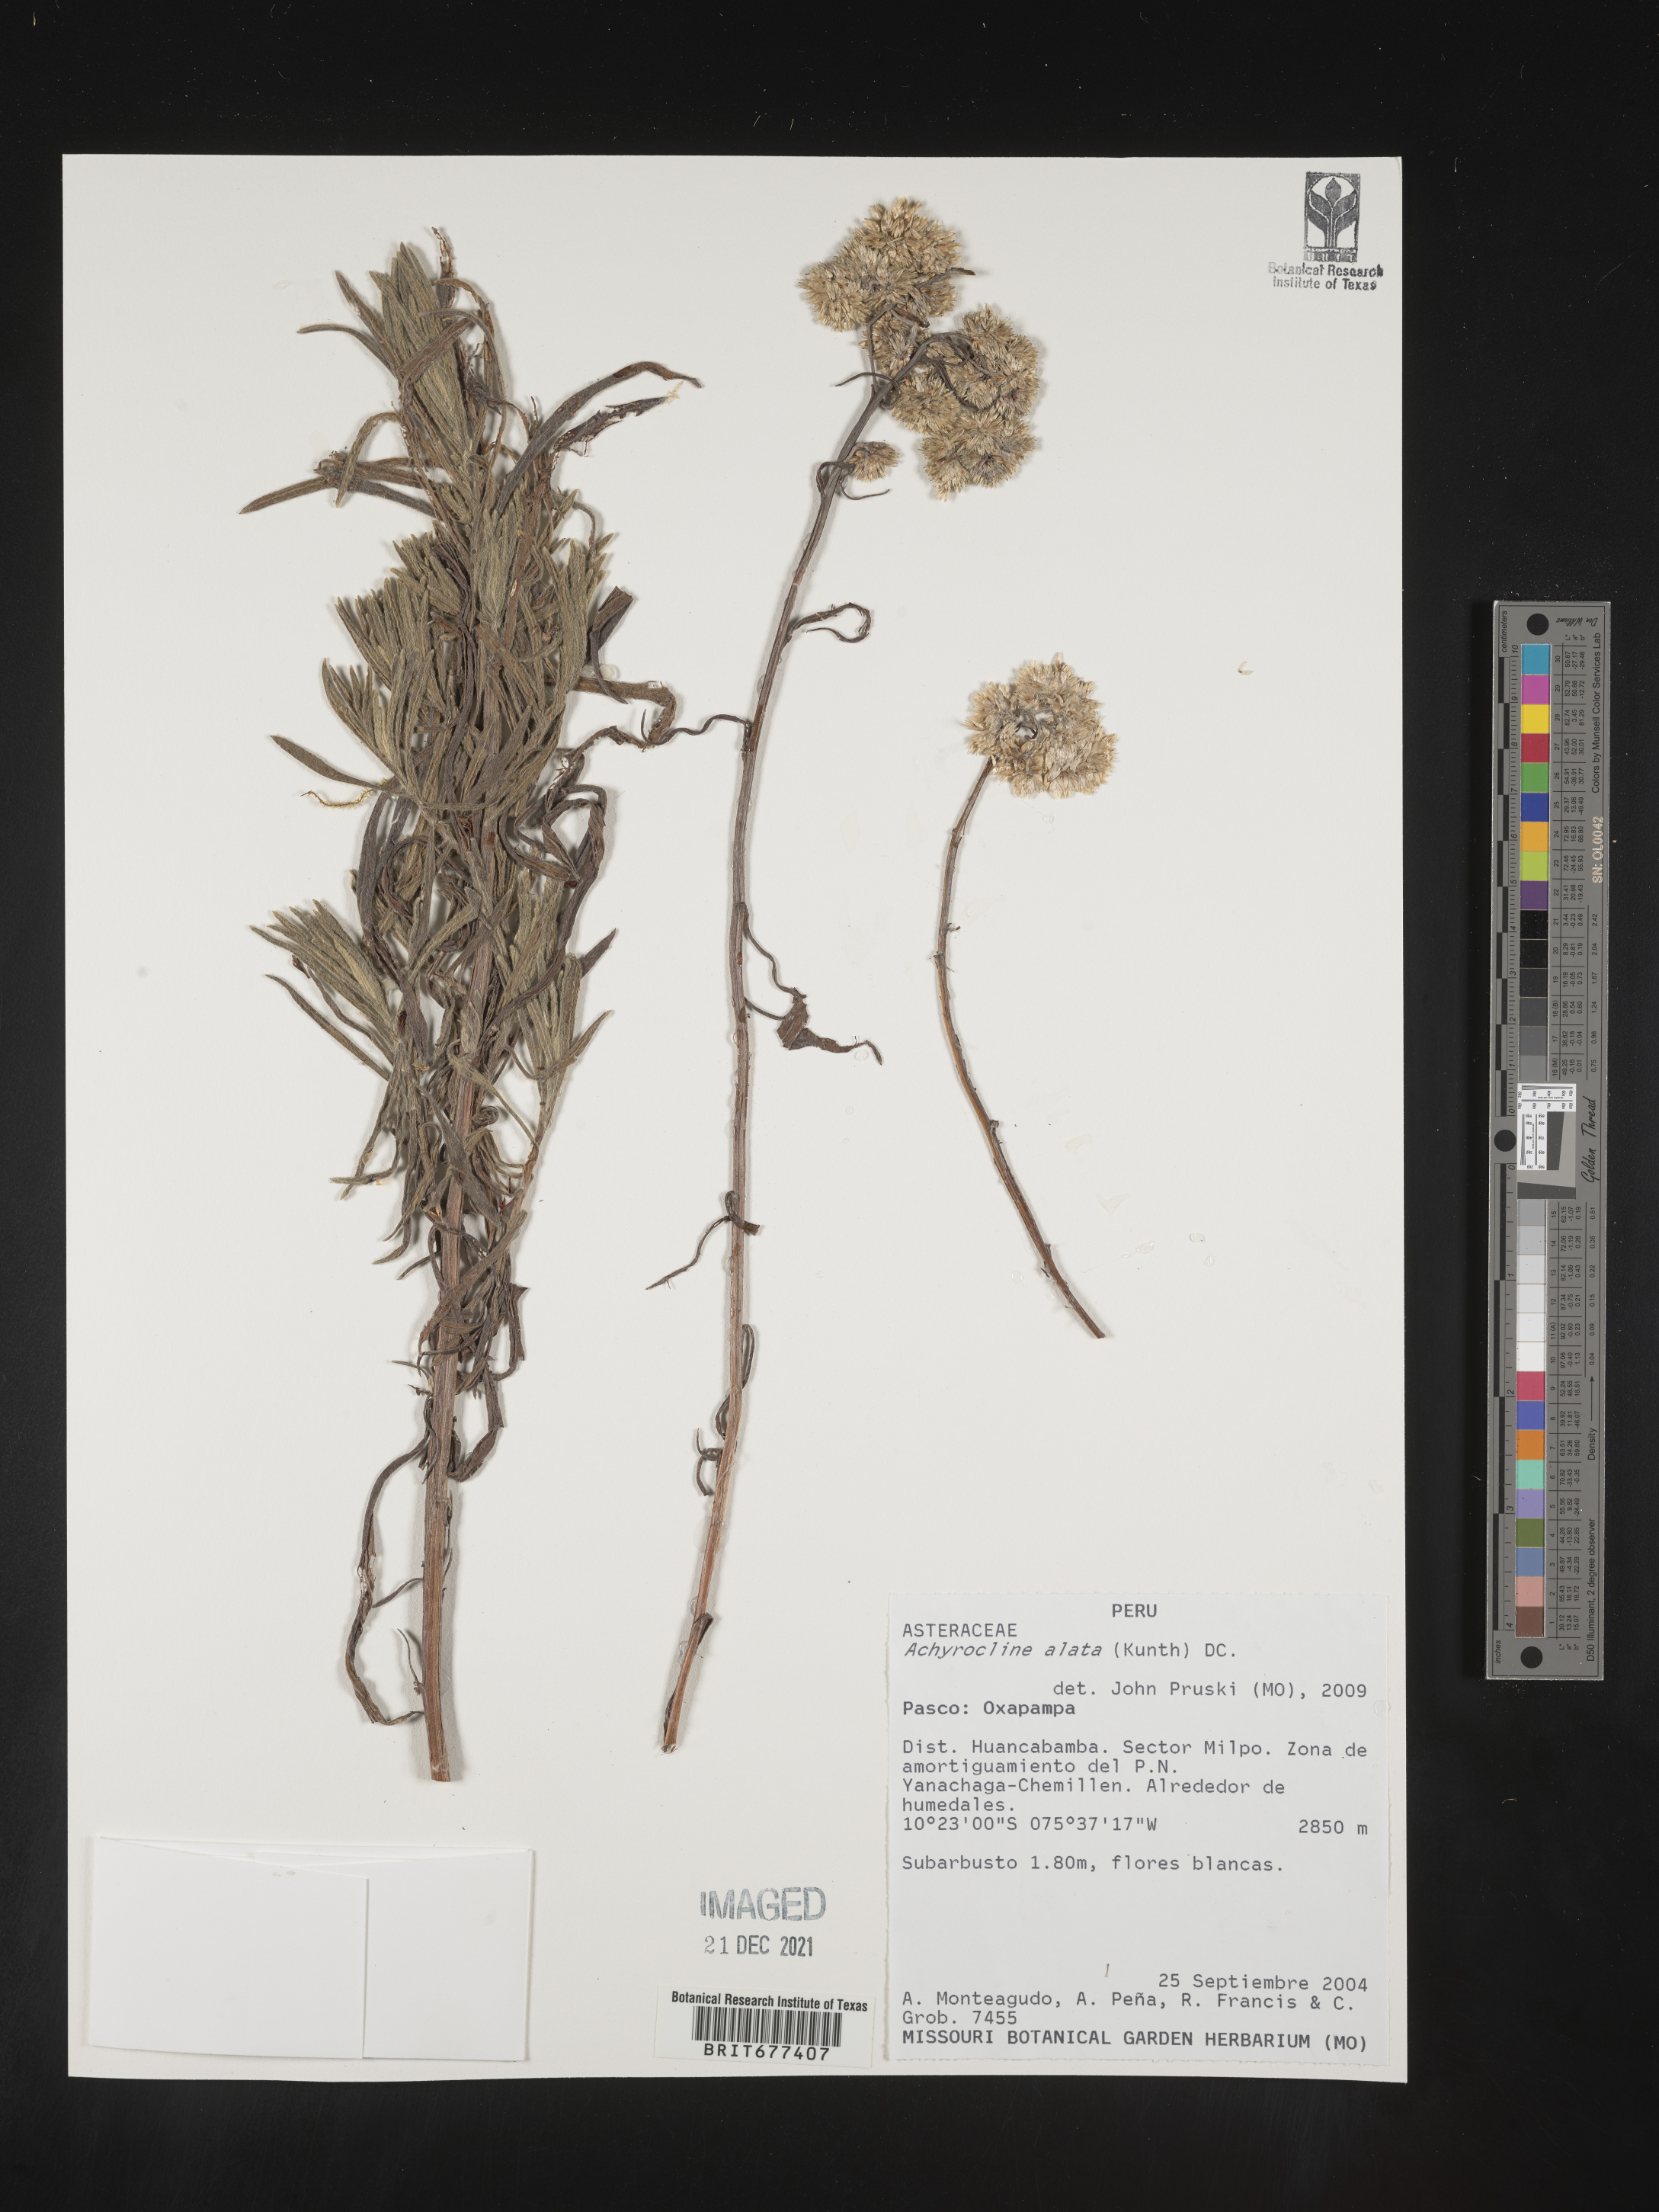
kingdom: Plantae
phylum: Tracheophyta
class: Magnoliopsida
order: Asterales
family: Asteraceae
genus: Achyrocline
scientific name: Achyrocline
